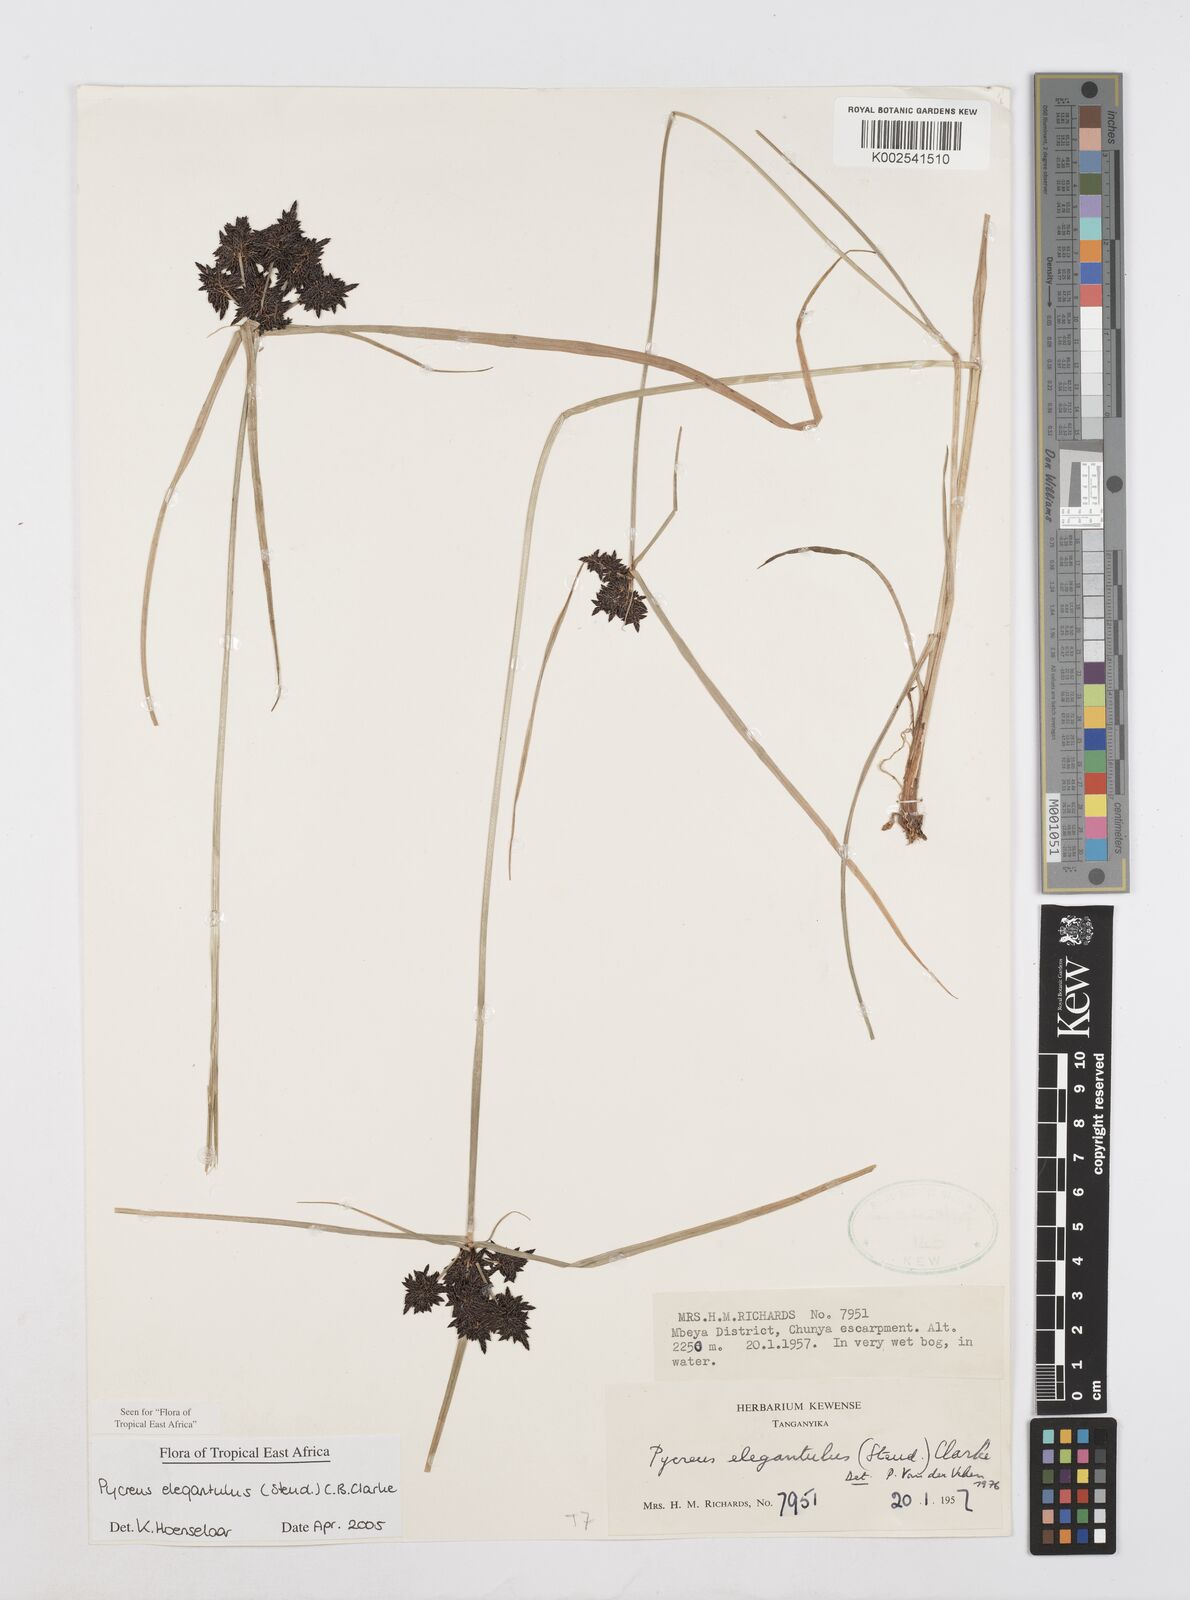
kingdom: Plantae
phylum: Tracheophyta
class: Liliopsida
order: Poales
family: Cyperaceae
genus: Cyperus
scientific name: Cyperus elegantulus
